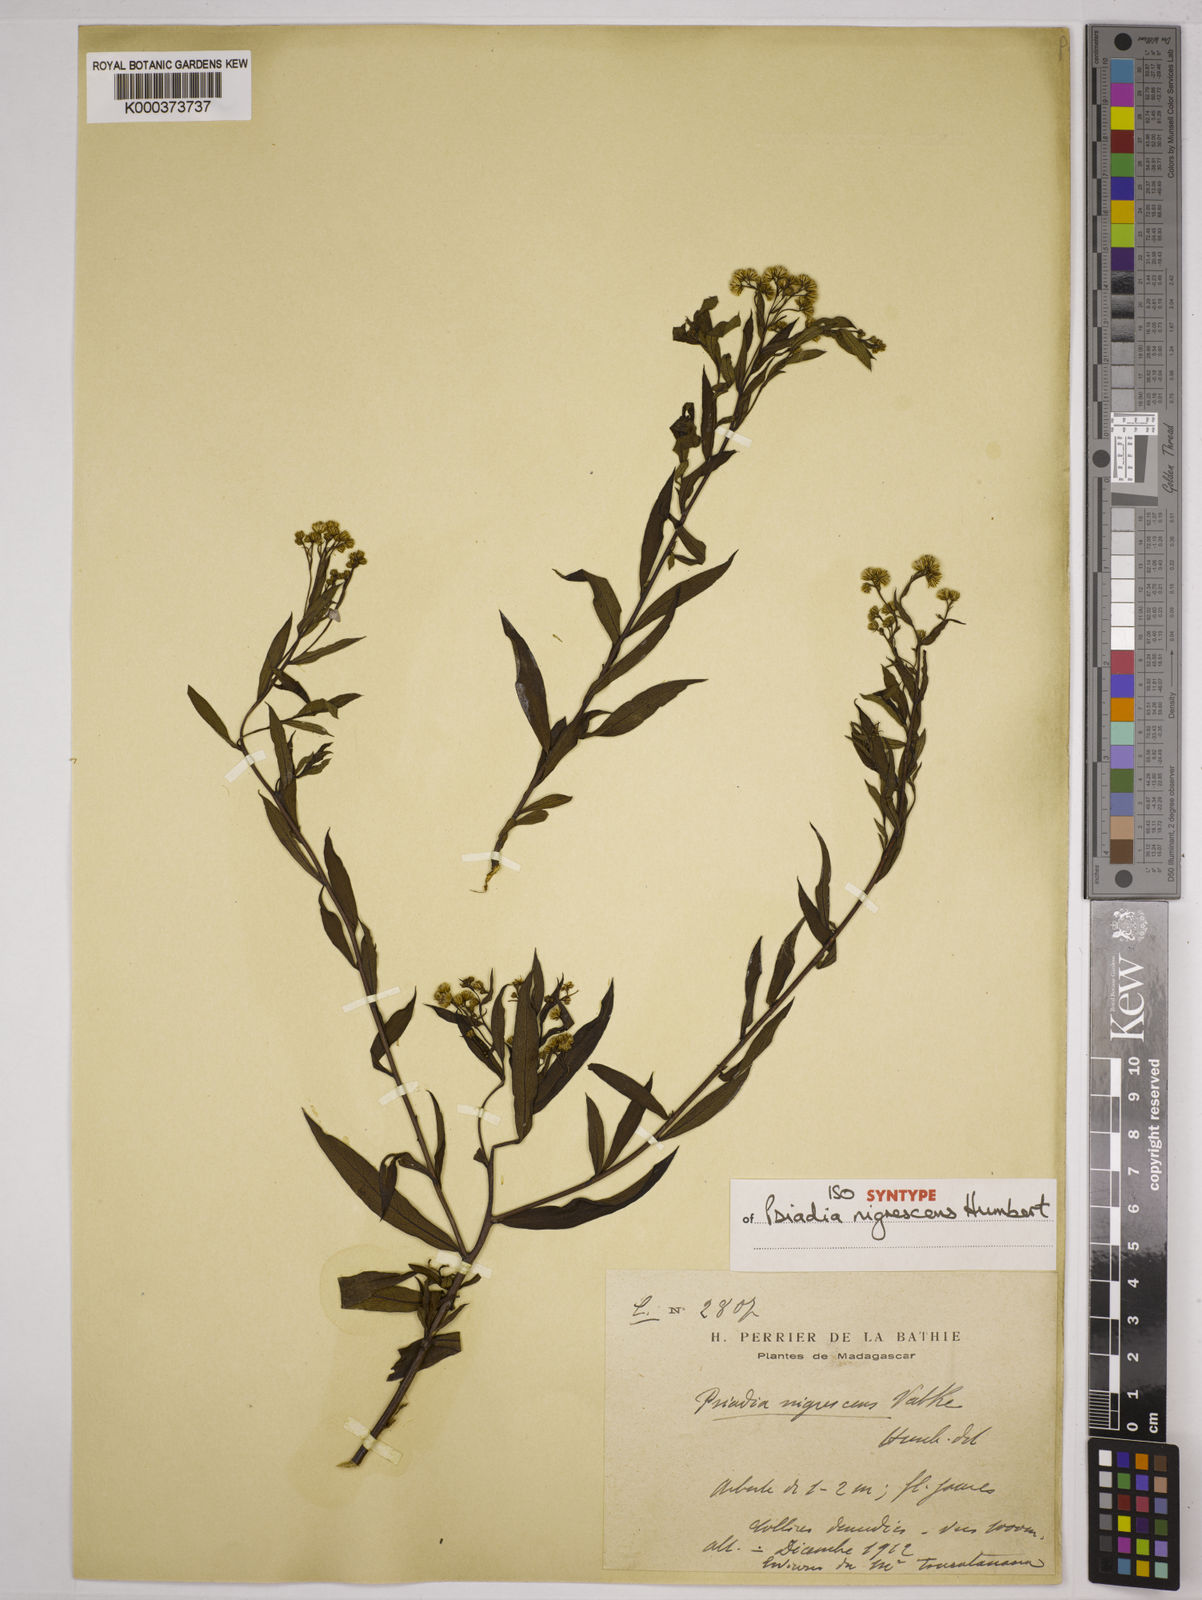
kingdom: Plantae
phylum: Tracheophyta
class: Magnoliopsida
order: Asterales
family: Asteraceae
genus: Psiadia
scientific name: Psiadia nigrescens
